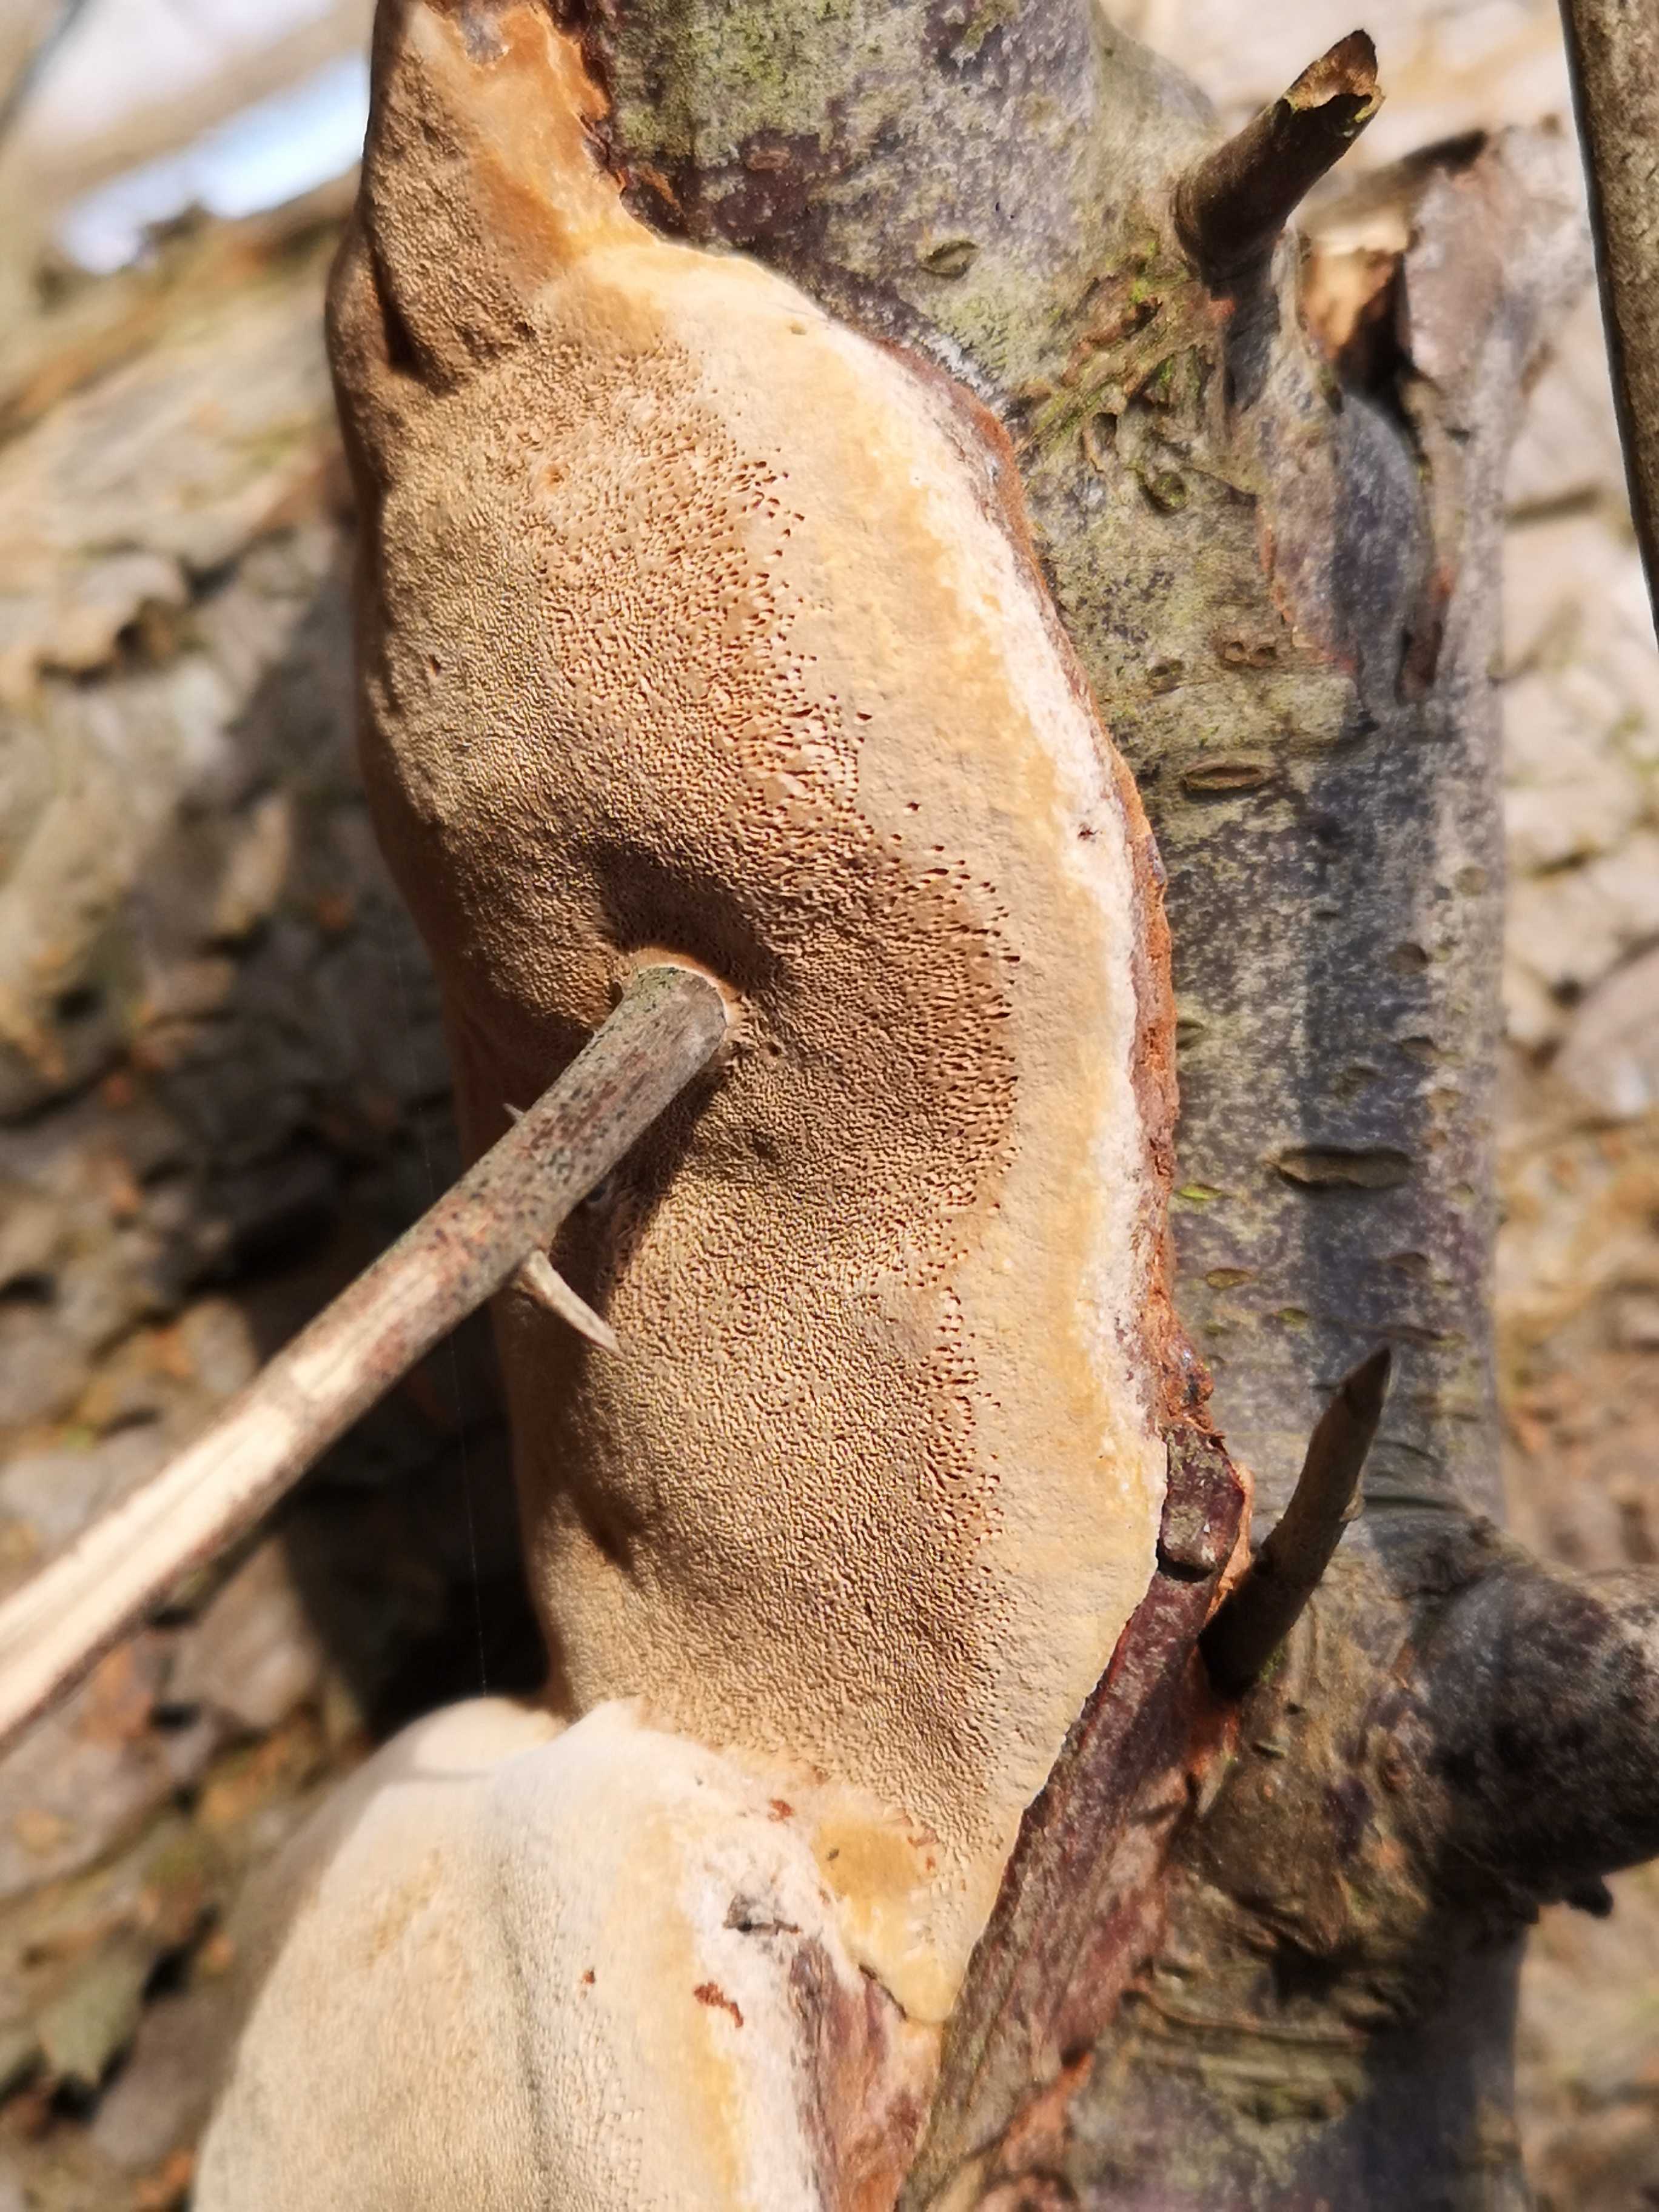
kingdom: Fungi
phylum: Basidiomycota
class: Agaricomycetes
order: Hymenochaetales
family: Hymenochaetaceae
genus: Phellinus
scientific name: Phellinus pomaceus
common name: blomme-ildporesvamp
